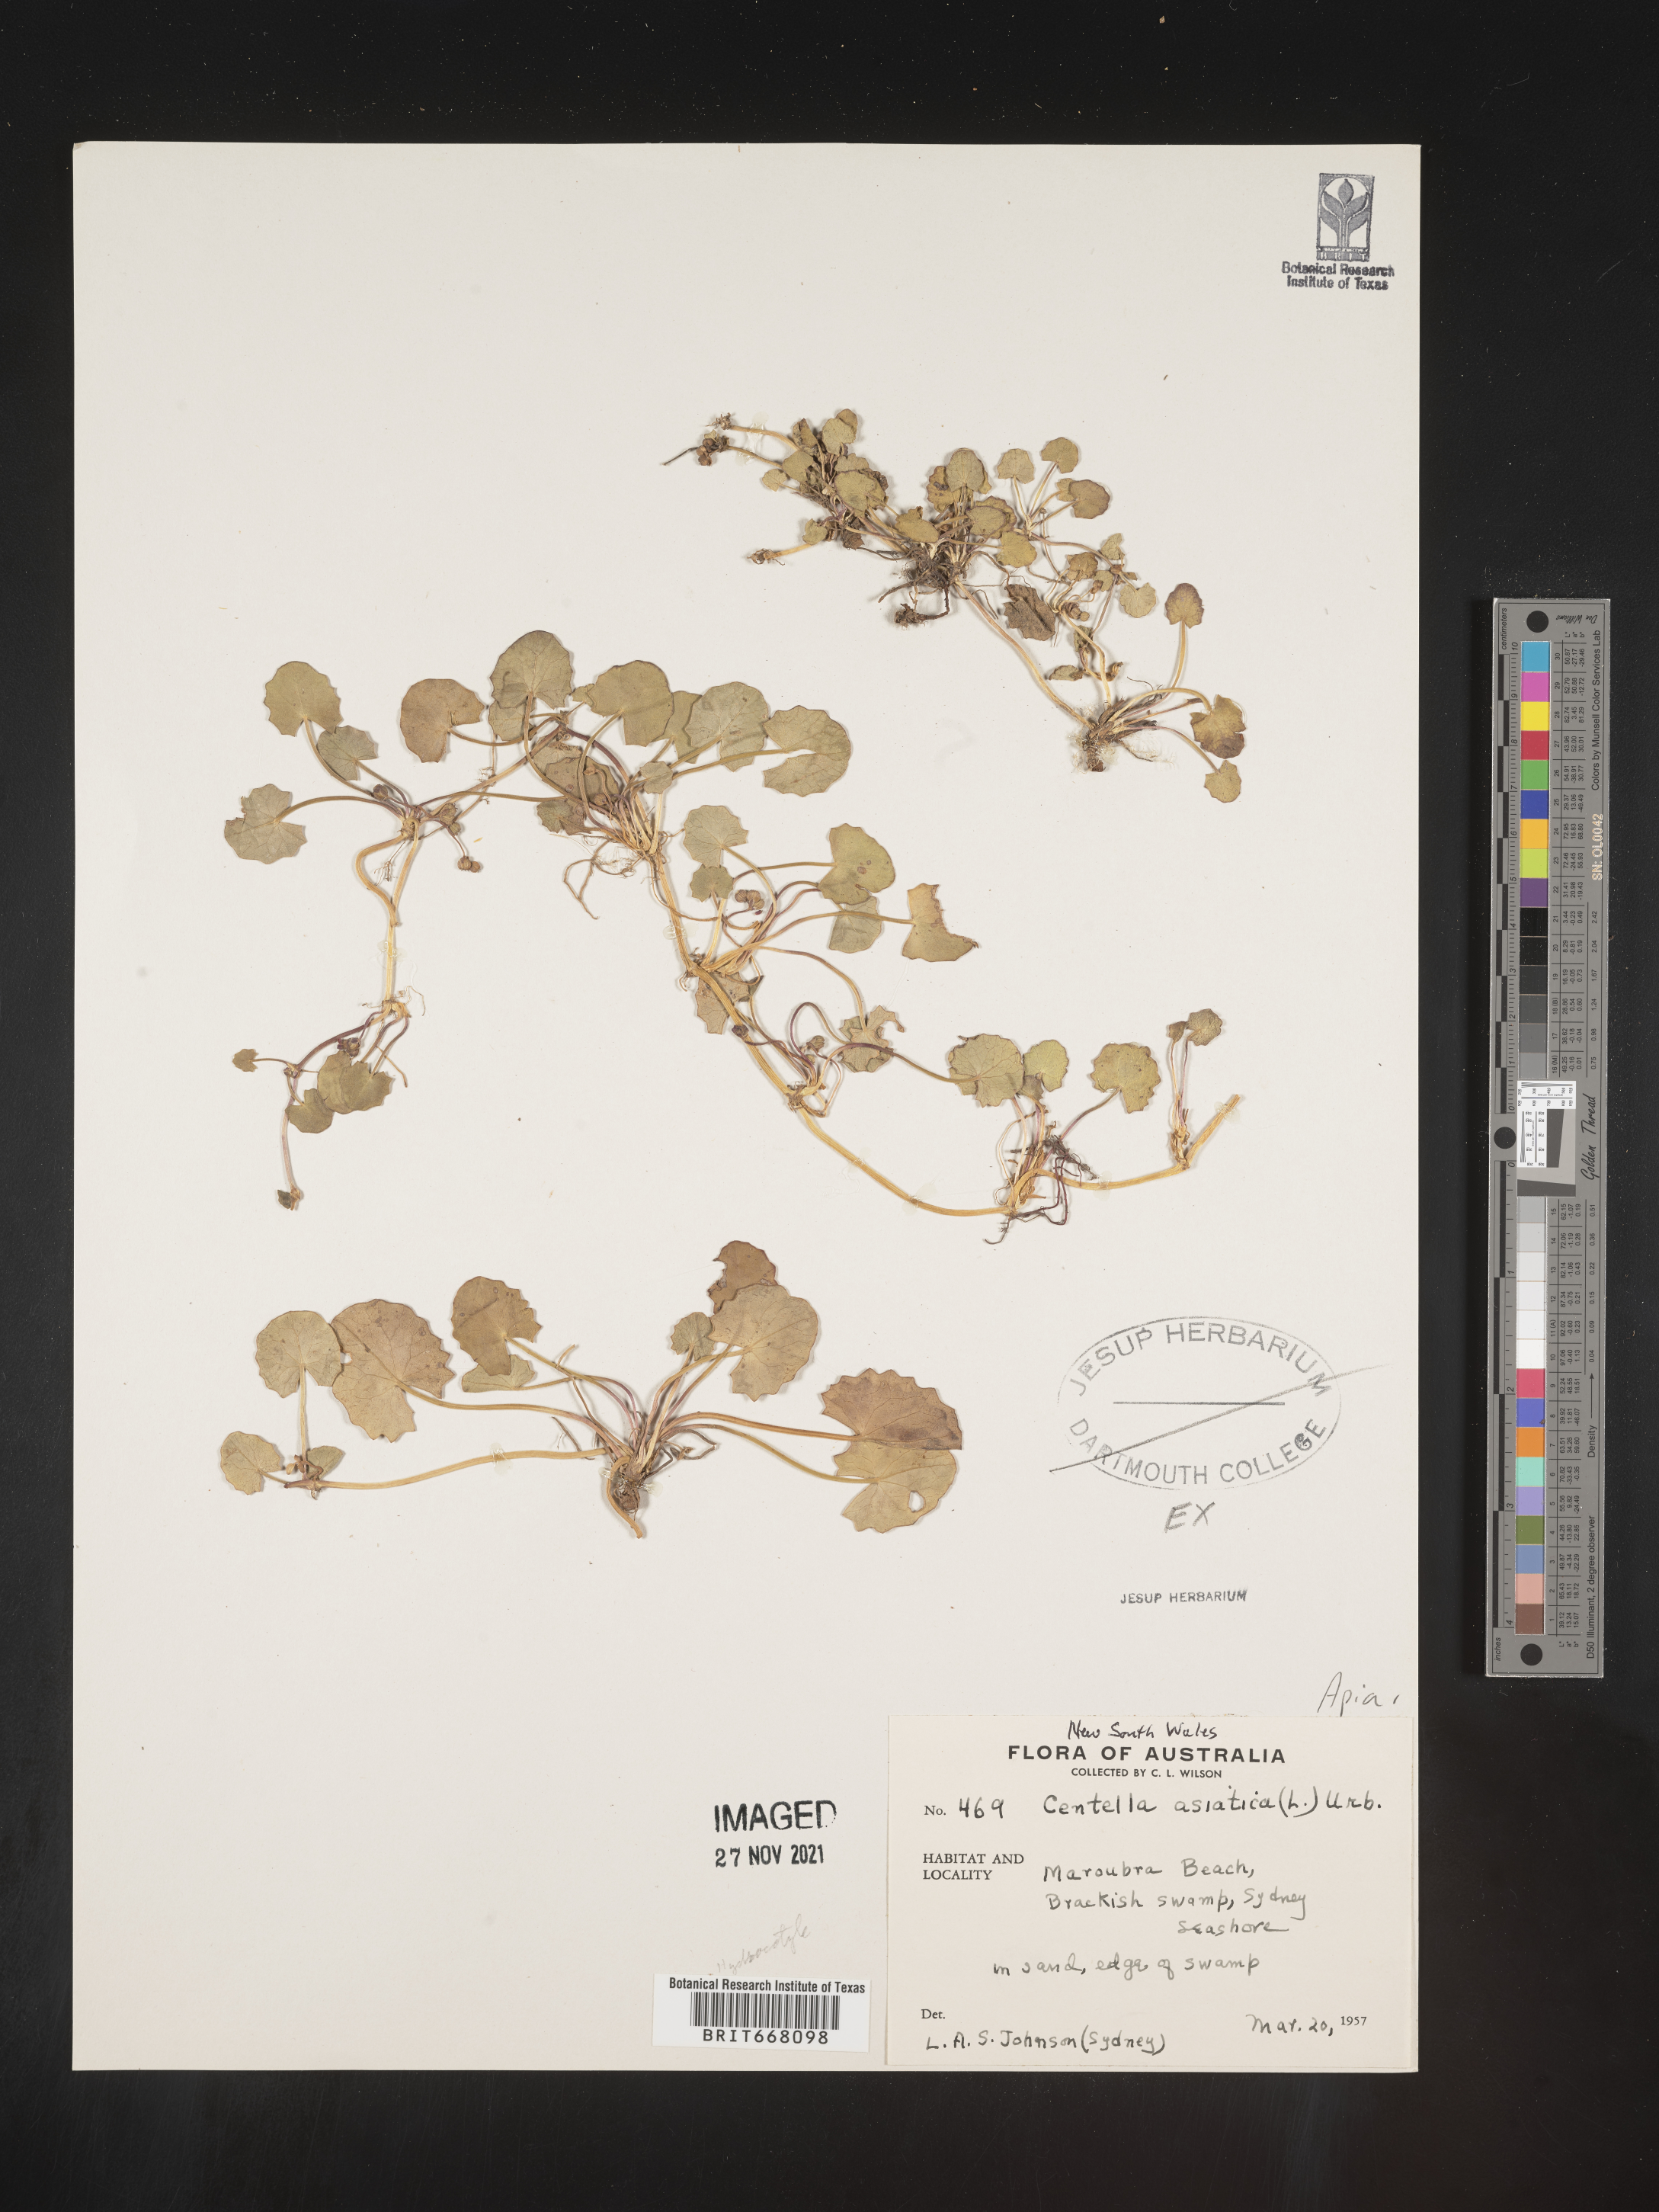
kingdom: Plantae
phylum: Tracheophyta
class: Magnoliopsida
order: Apiales
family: Apiaceae
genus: Centella
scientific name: Centella
